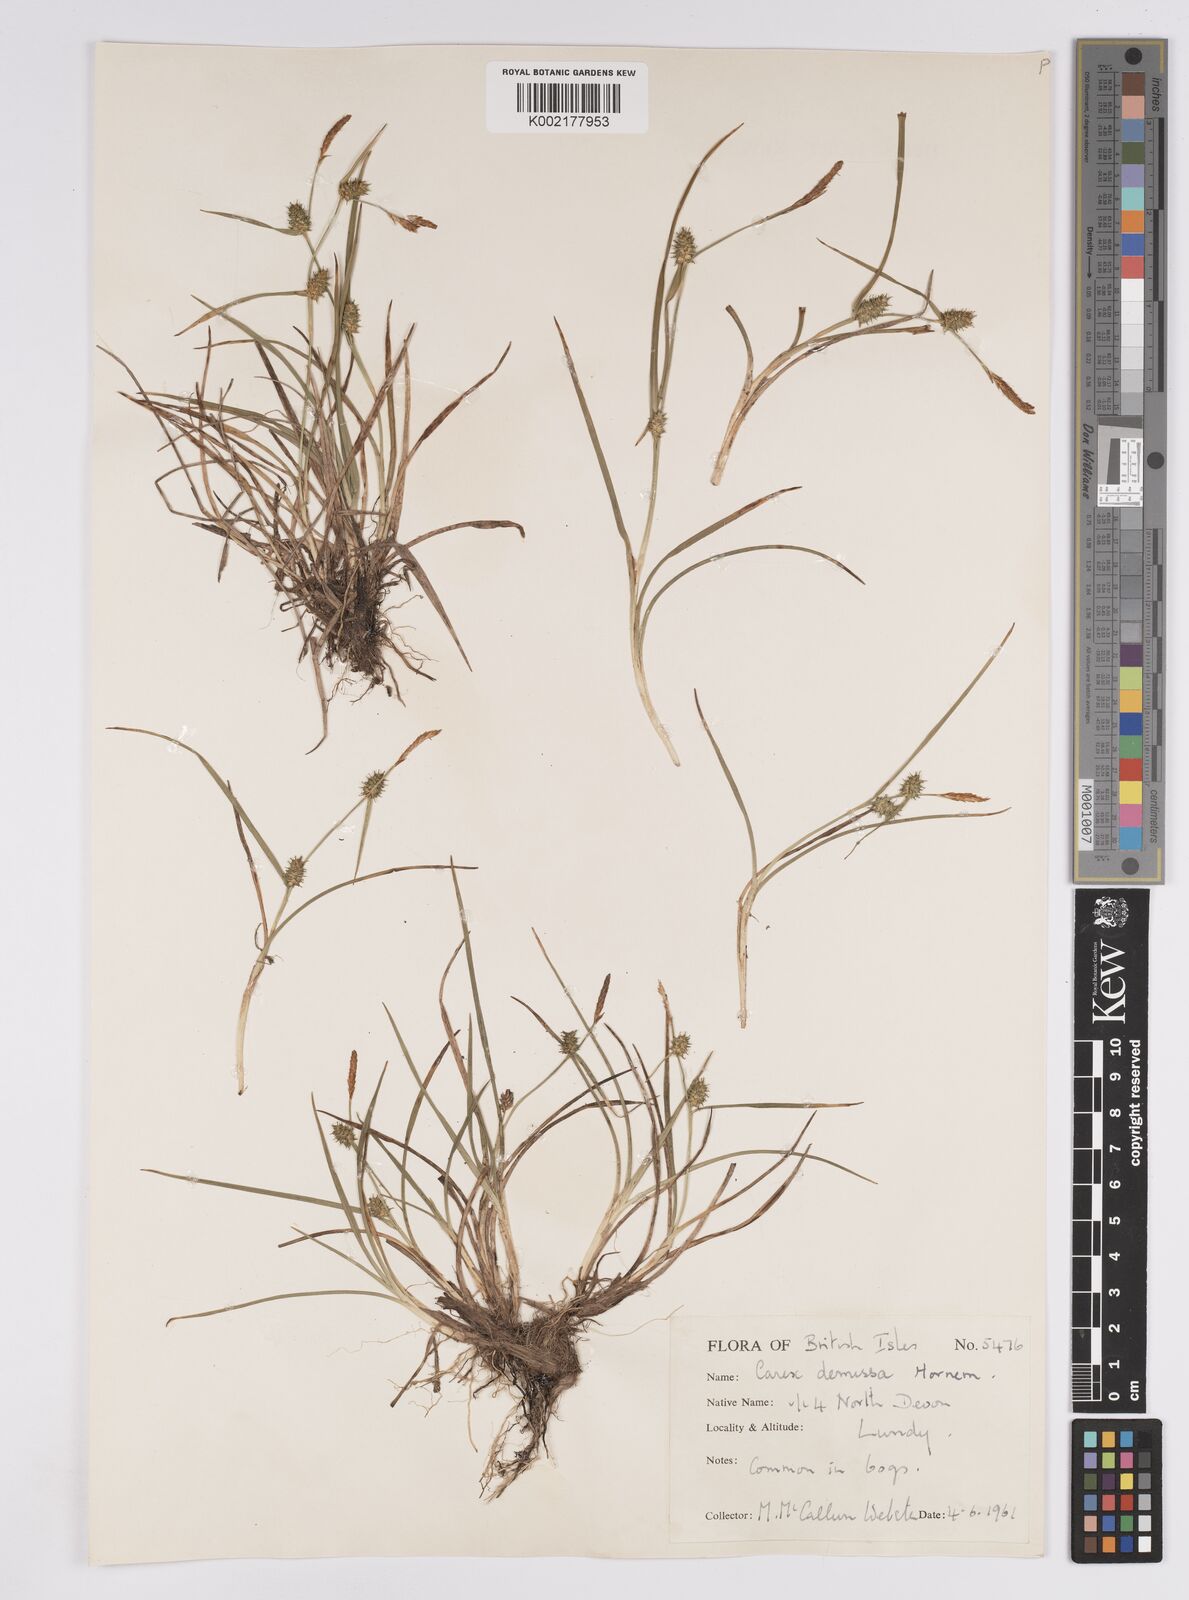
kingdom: Plantae
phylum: Tracheophyta
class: Liliopsida
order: Poales
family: Cyperaceae
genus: Carex
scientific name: Carex demissa
